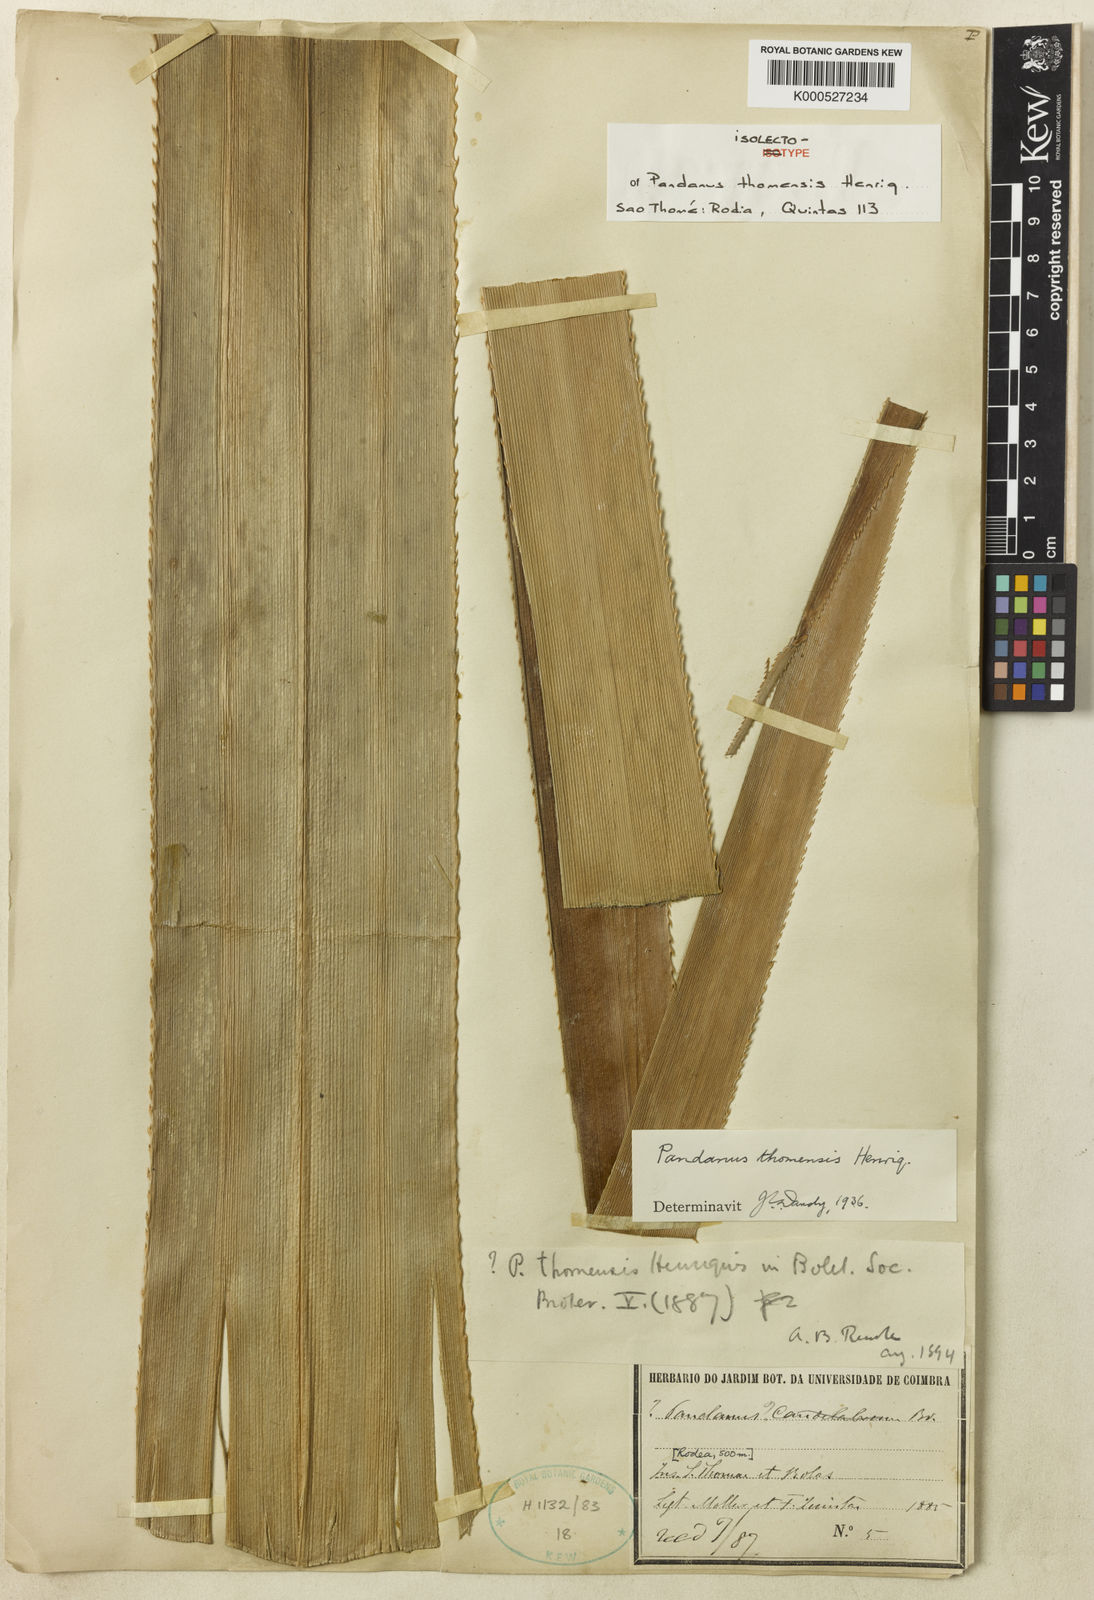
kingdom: Plantae
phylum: Tracheophyta
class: Liliopsida
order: Pandanales
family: Pandanaceae
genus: Pandanus
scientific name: Pandanus thomensis
